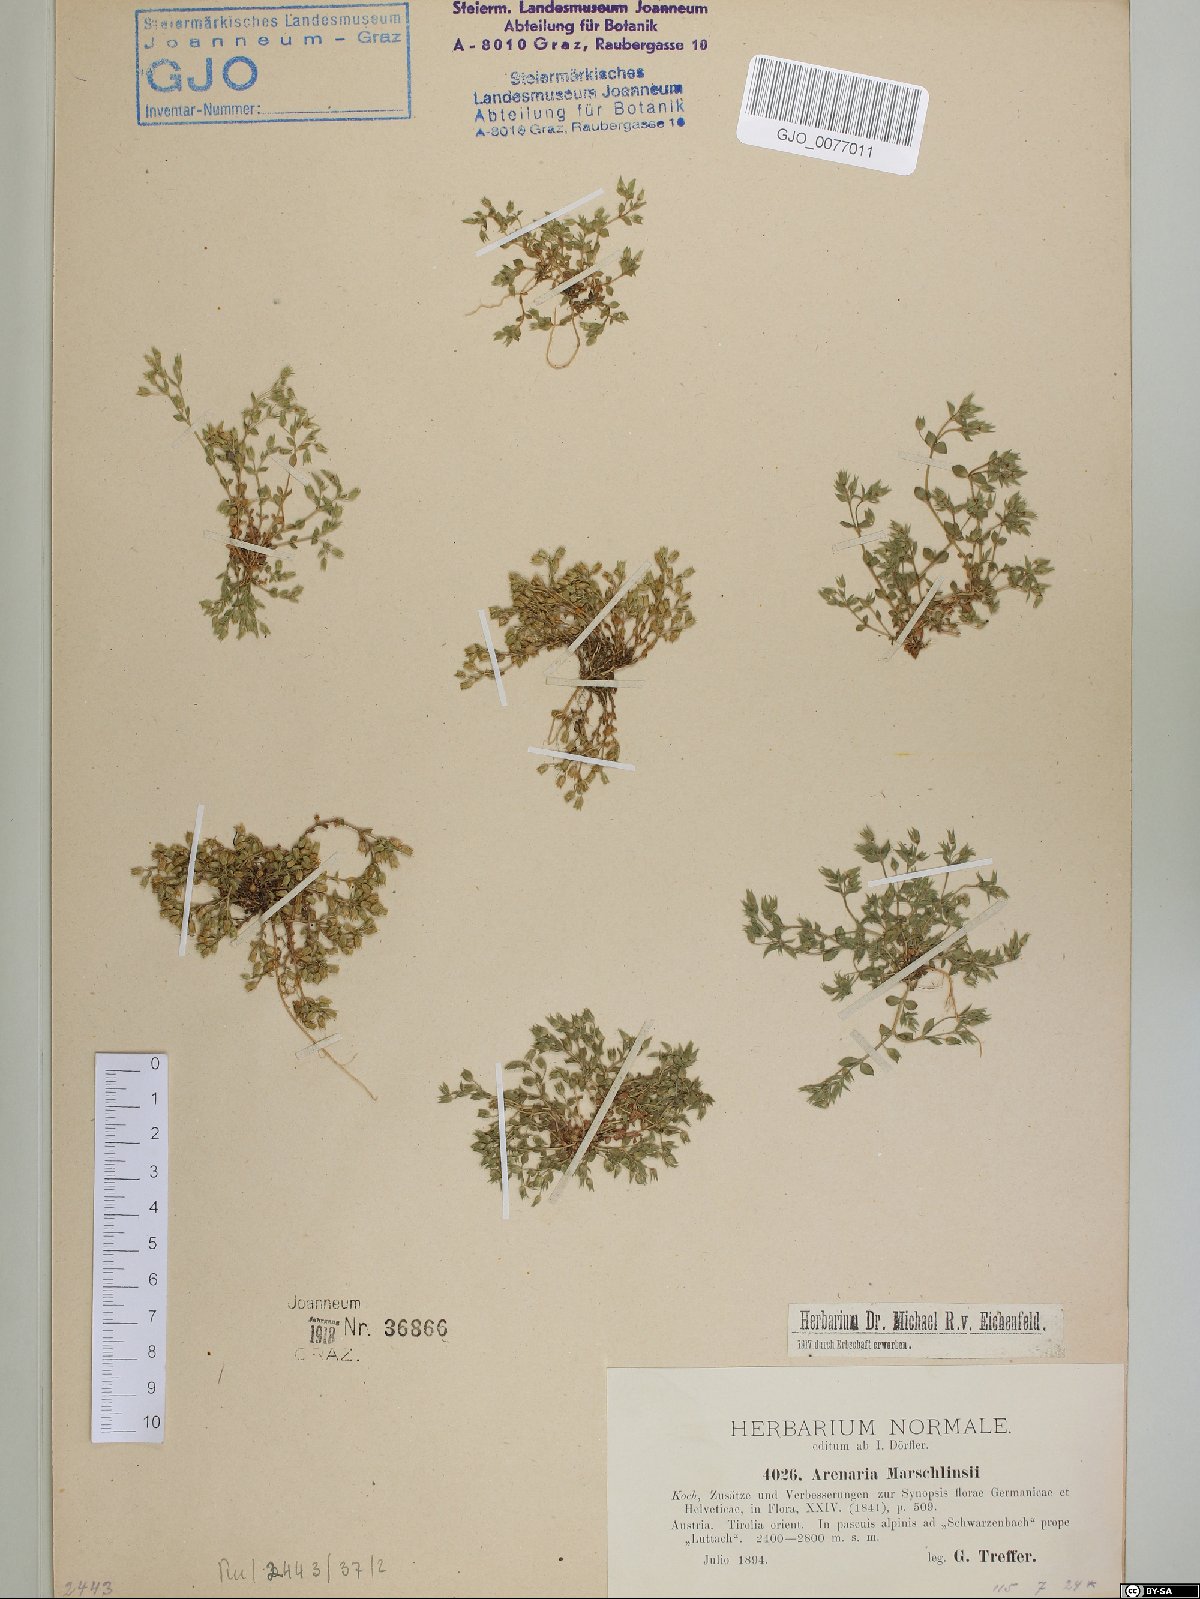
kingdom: Plantae
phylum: Tracheophyta
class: Magnoliopsida
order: Caryophyllales
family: Caryophyllaceae
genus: Arenaria
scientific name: Arenaria marschlinsii
